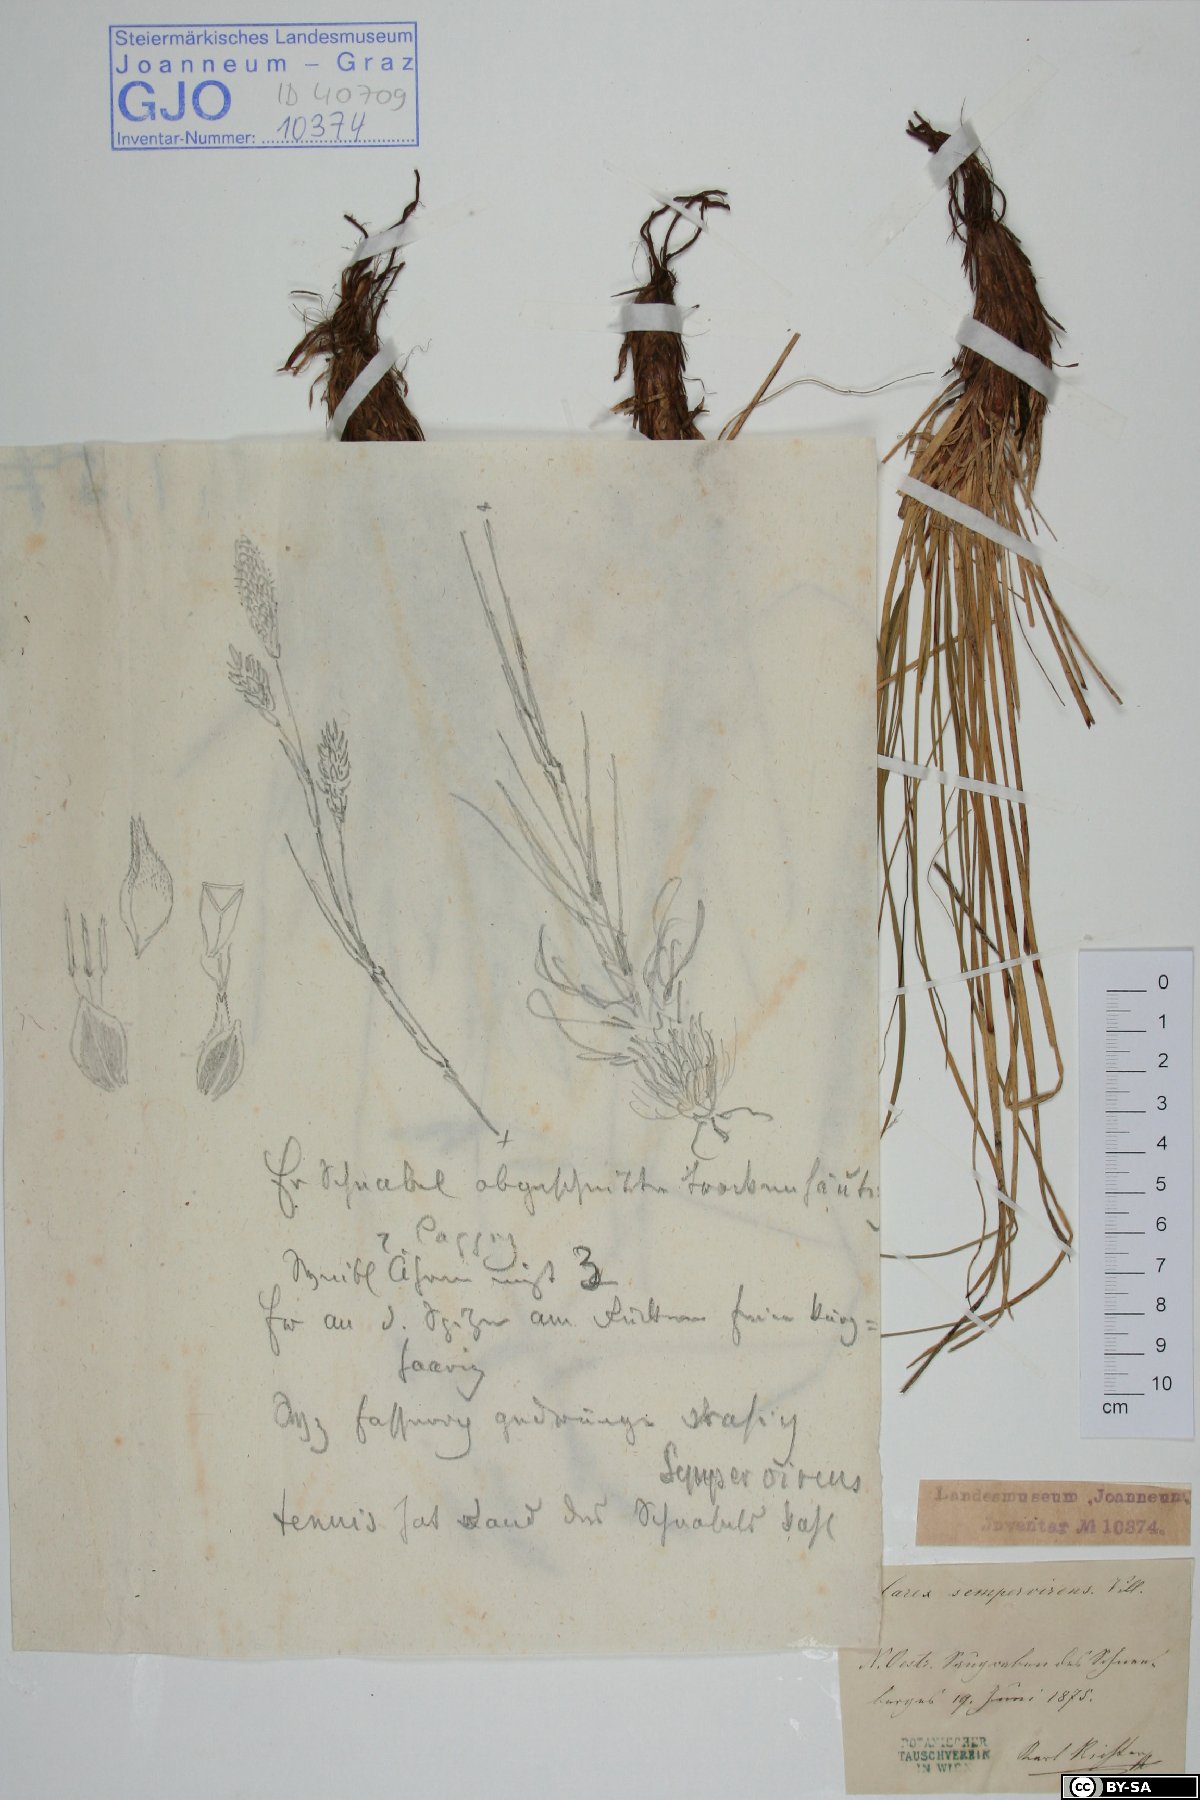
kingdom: Plantae
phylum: Tracheophyta
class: Liliopsida
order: Poales
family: Cyperaceae
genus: Carex
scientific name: Carex sempervirens
